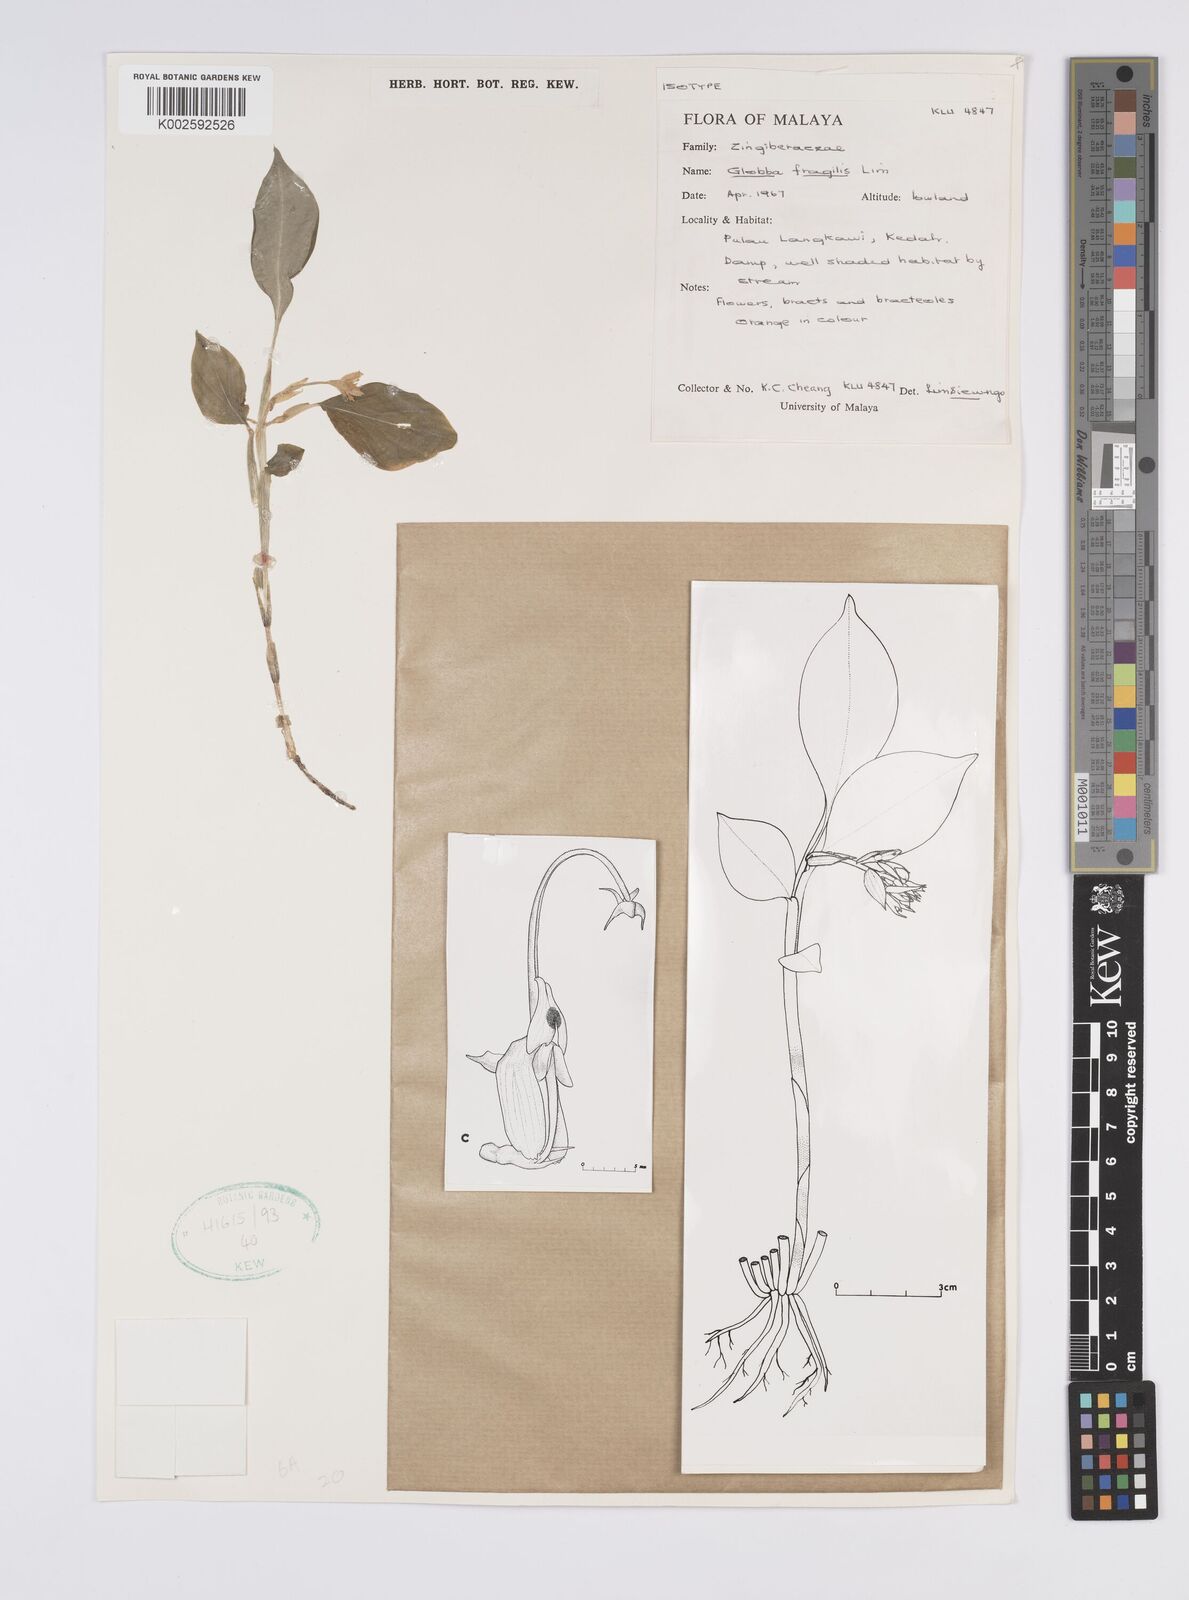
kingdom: Plantae
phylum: Tracheophyta
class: Liliopsida
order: Zingiberales
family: Zingiberaceae
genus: Globba
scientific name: Globba fragilis
